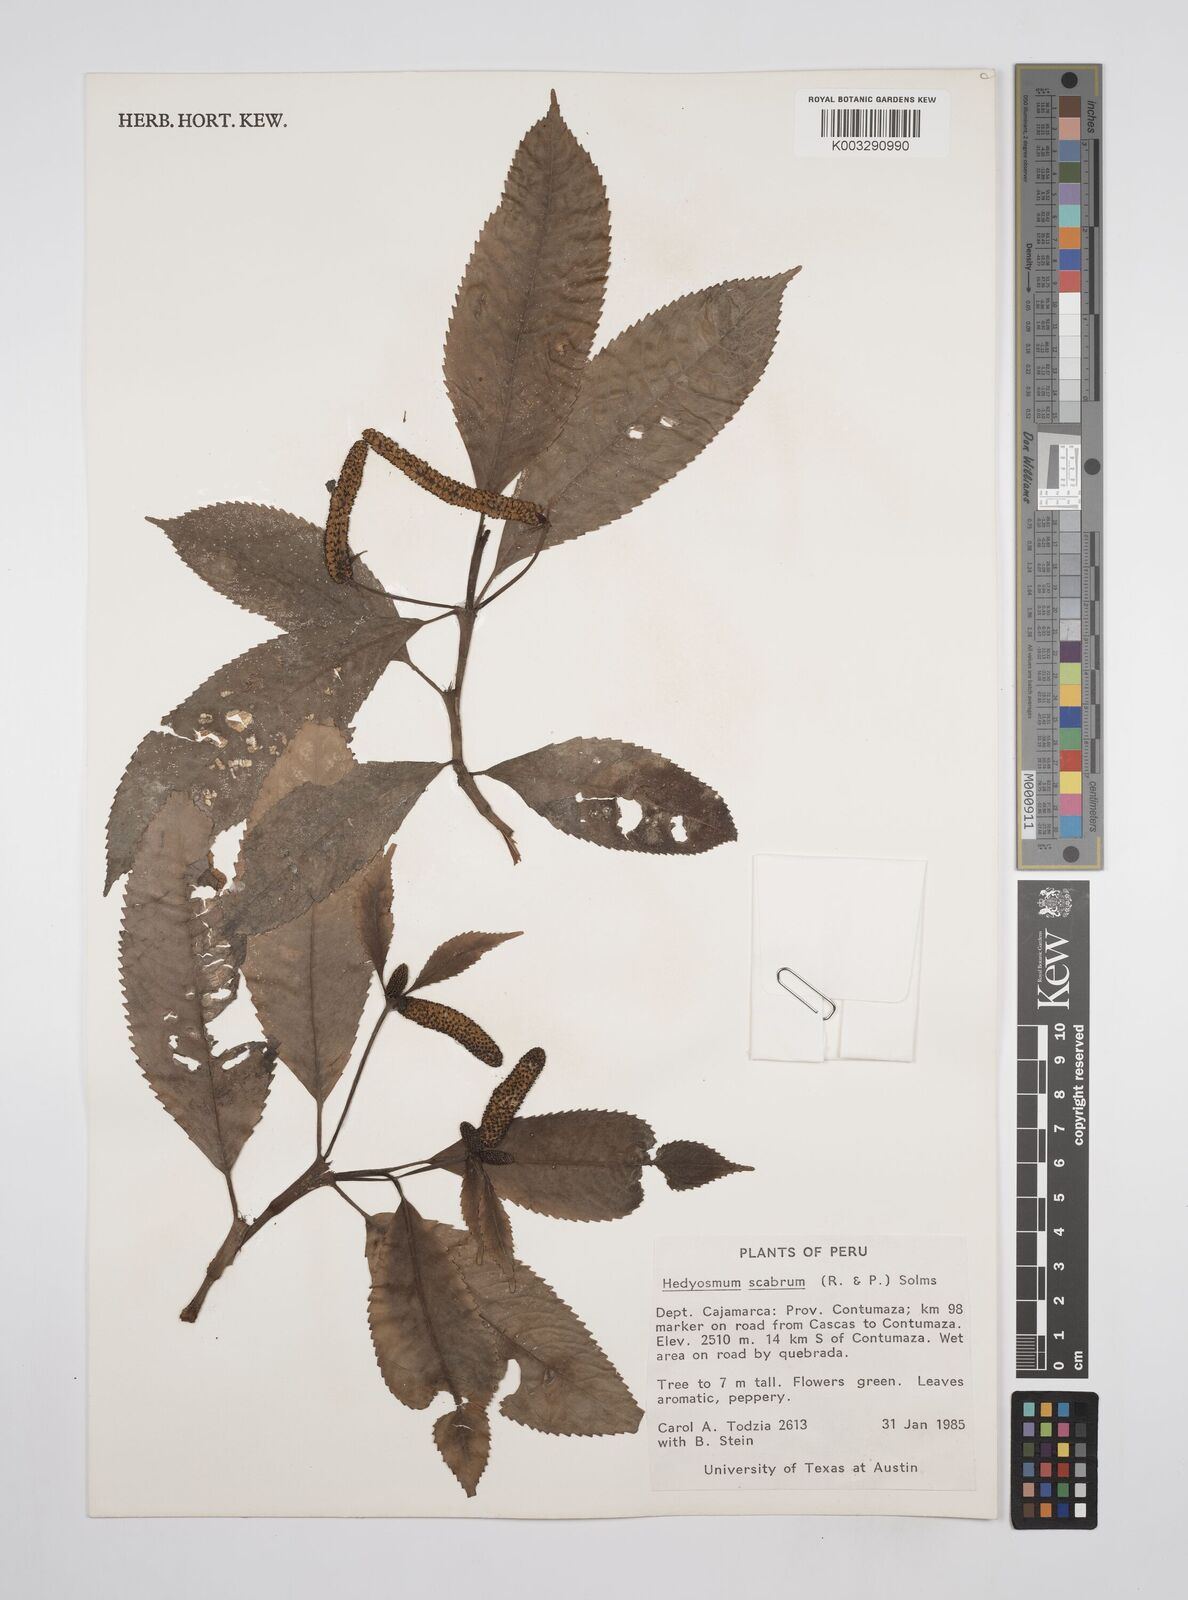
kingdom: Plantae
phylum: Tracheophyta
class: Magnoliopsida
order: Chloranthales
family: Chloranthaceae
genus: Hedyosmum
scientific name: Hedyosmum scabrum
